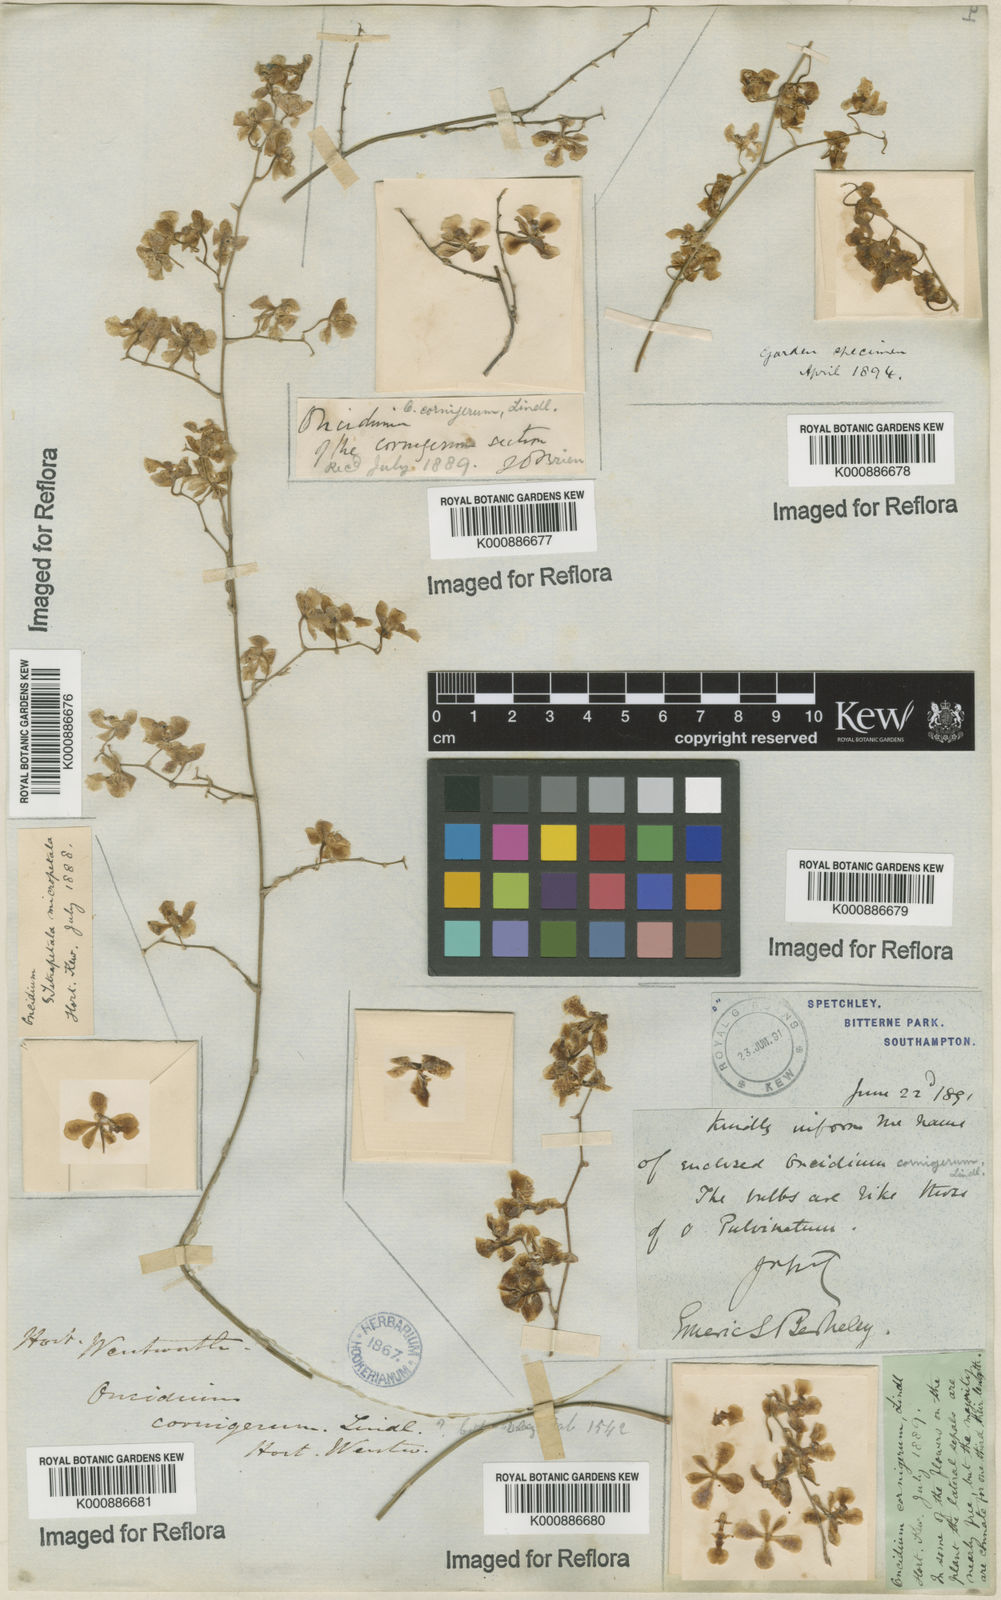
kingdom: Plantae
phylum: Tracheophyta
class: Liliopsida
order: Asparagales
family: Orchidaceae
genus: Gomesa
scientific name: Gomesa cornigera
